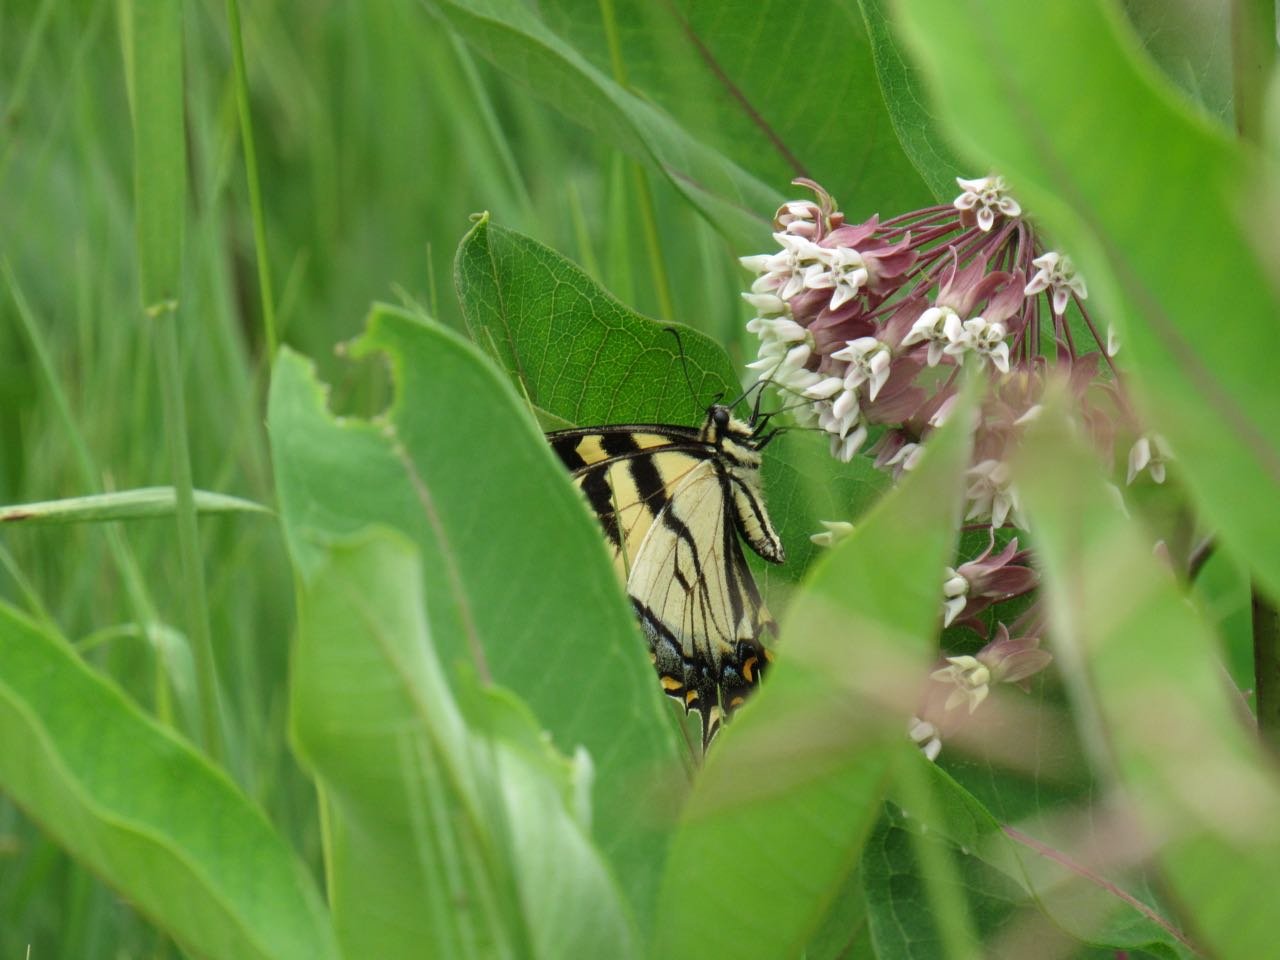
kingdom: Animalia
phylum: Arthropoda
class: Insecta
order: Lepidoptera
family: Papilionidae
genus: Pterourus
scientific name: Pterourus canadensis
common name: Canadian Tiger Swallowtail
